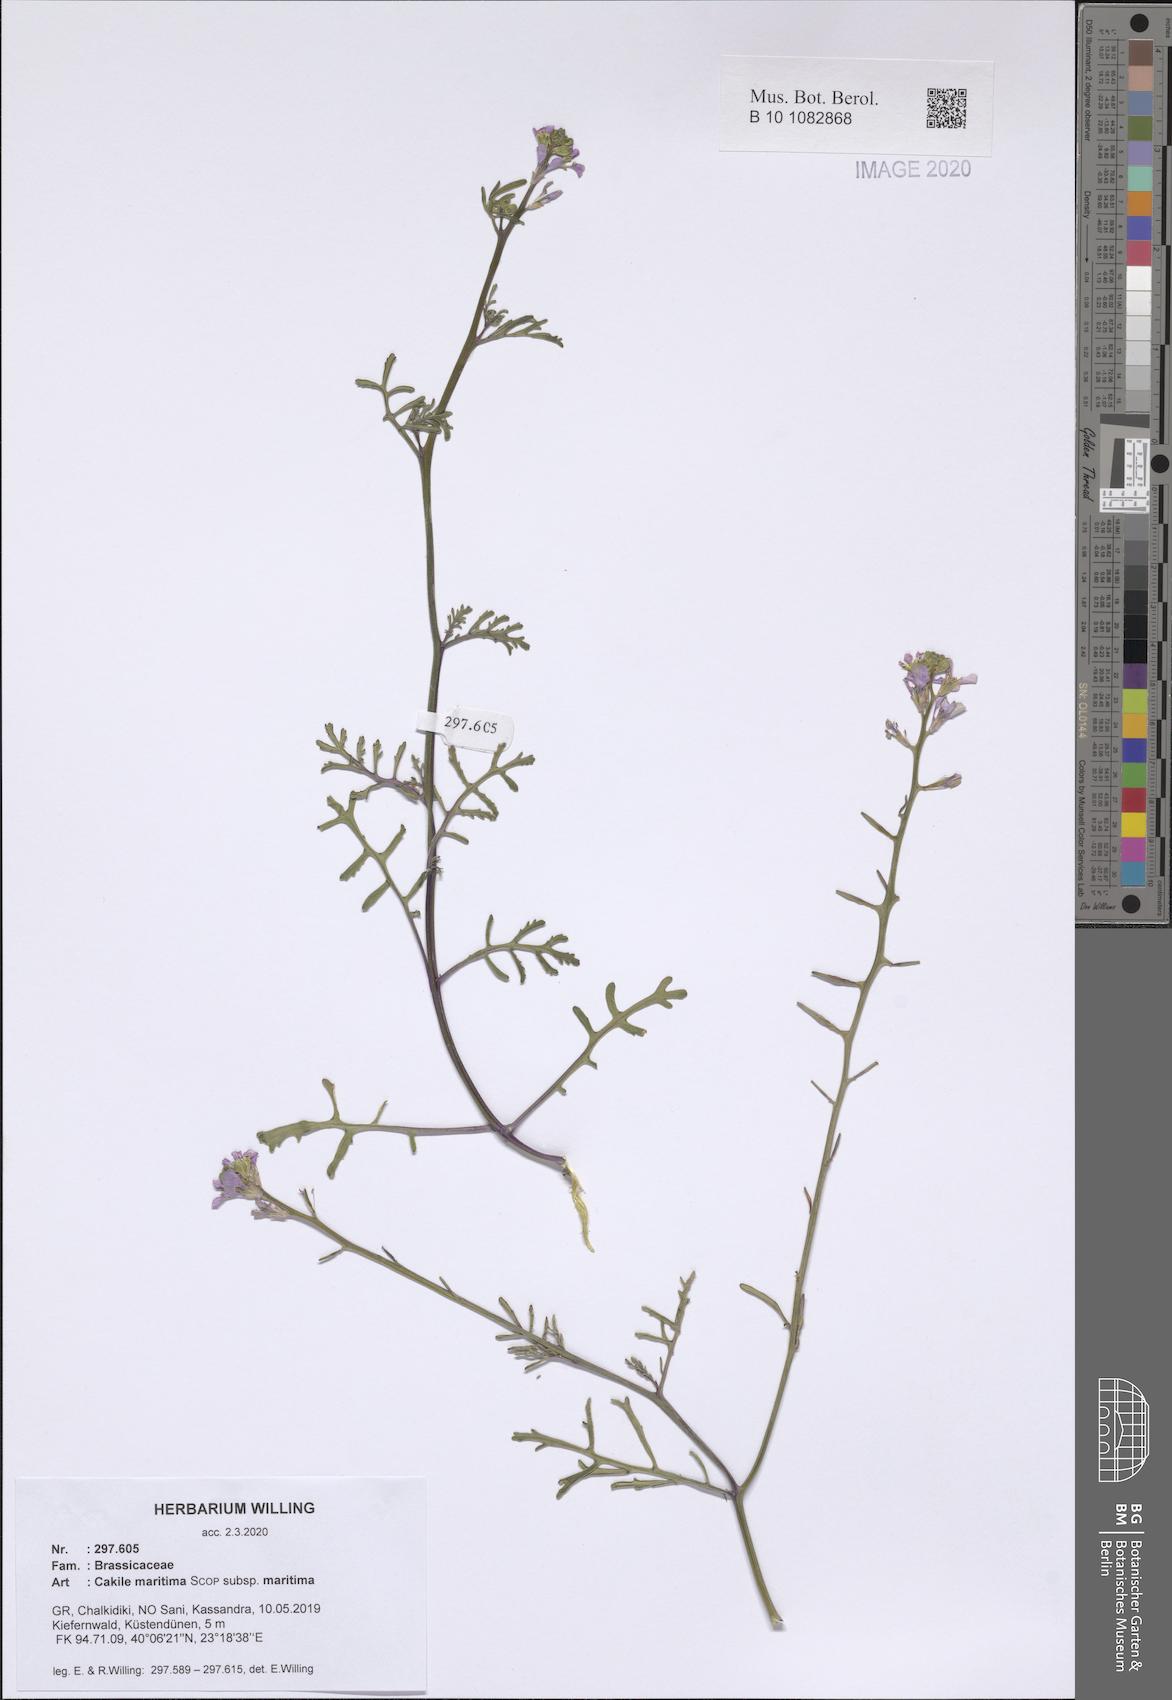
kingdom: Plantae
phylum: Tracheophyta
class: Magnoliopsida
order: Brassicales
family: Brassicaceae
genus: Cakile
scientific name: Cakile maritima
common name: Sea rocket
